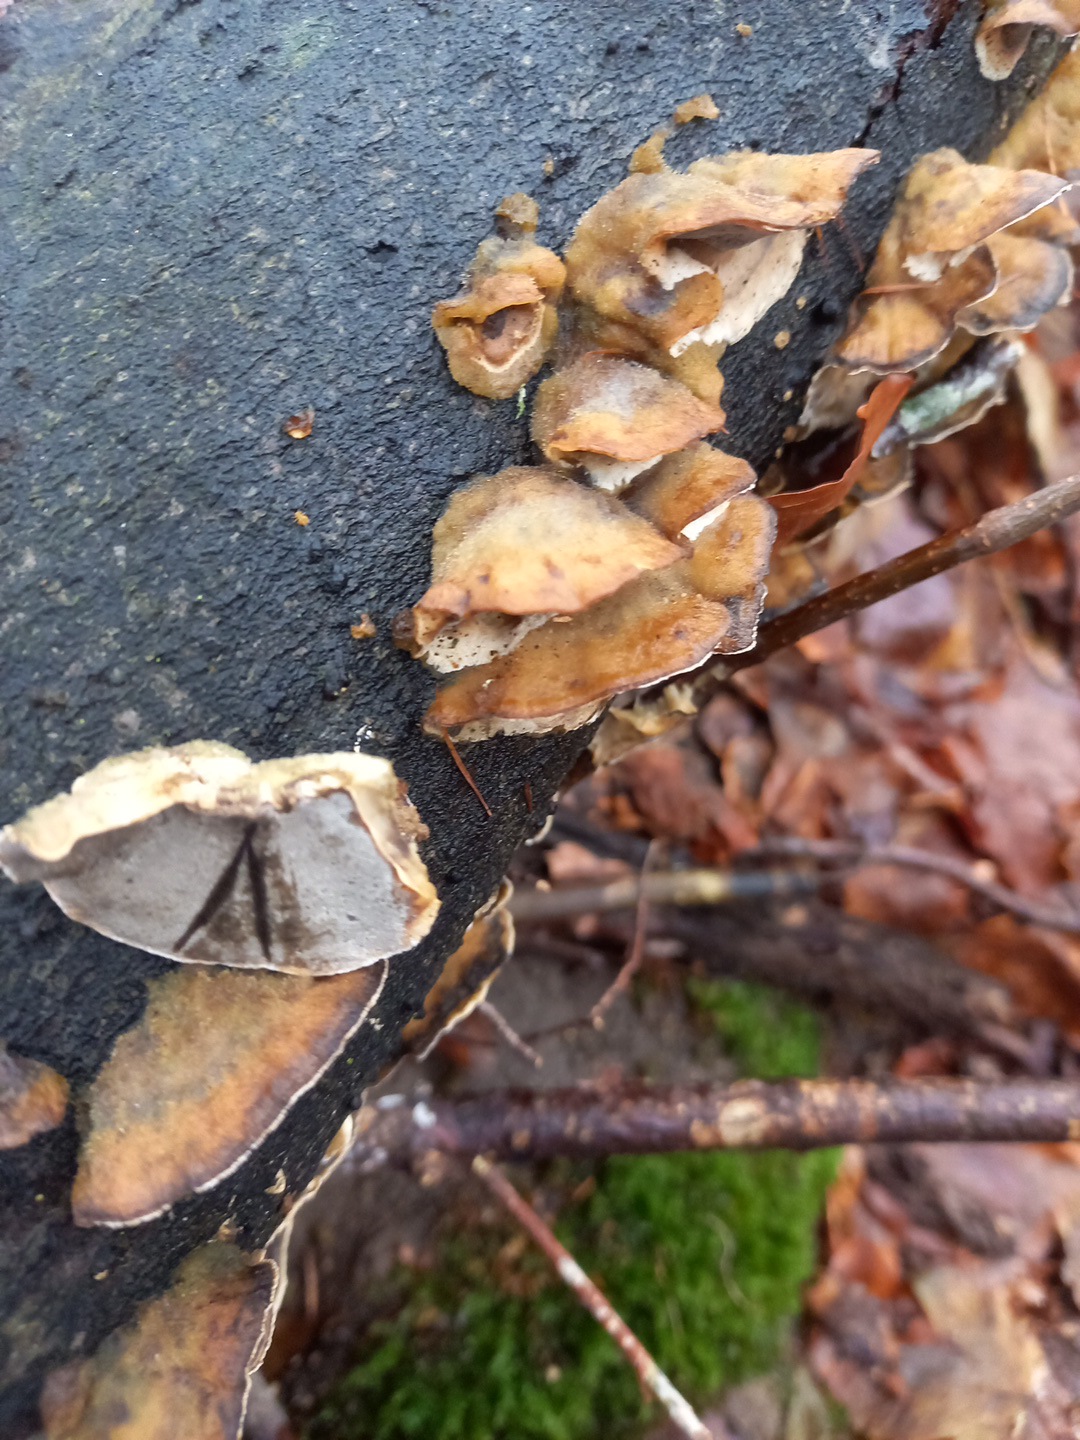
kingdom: Fungi
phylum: Basidiomycota
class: Agaricomycetes
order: Polyporales
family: Phanerochaetaceae
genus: Bjerkandera
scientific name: Bjerkandera adusta
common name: sveden sodporesvamp
